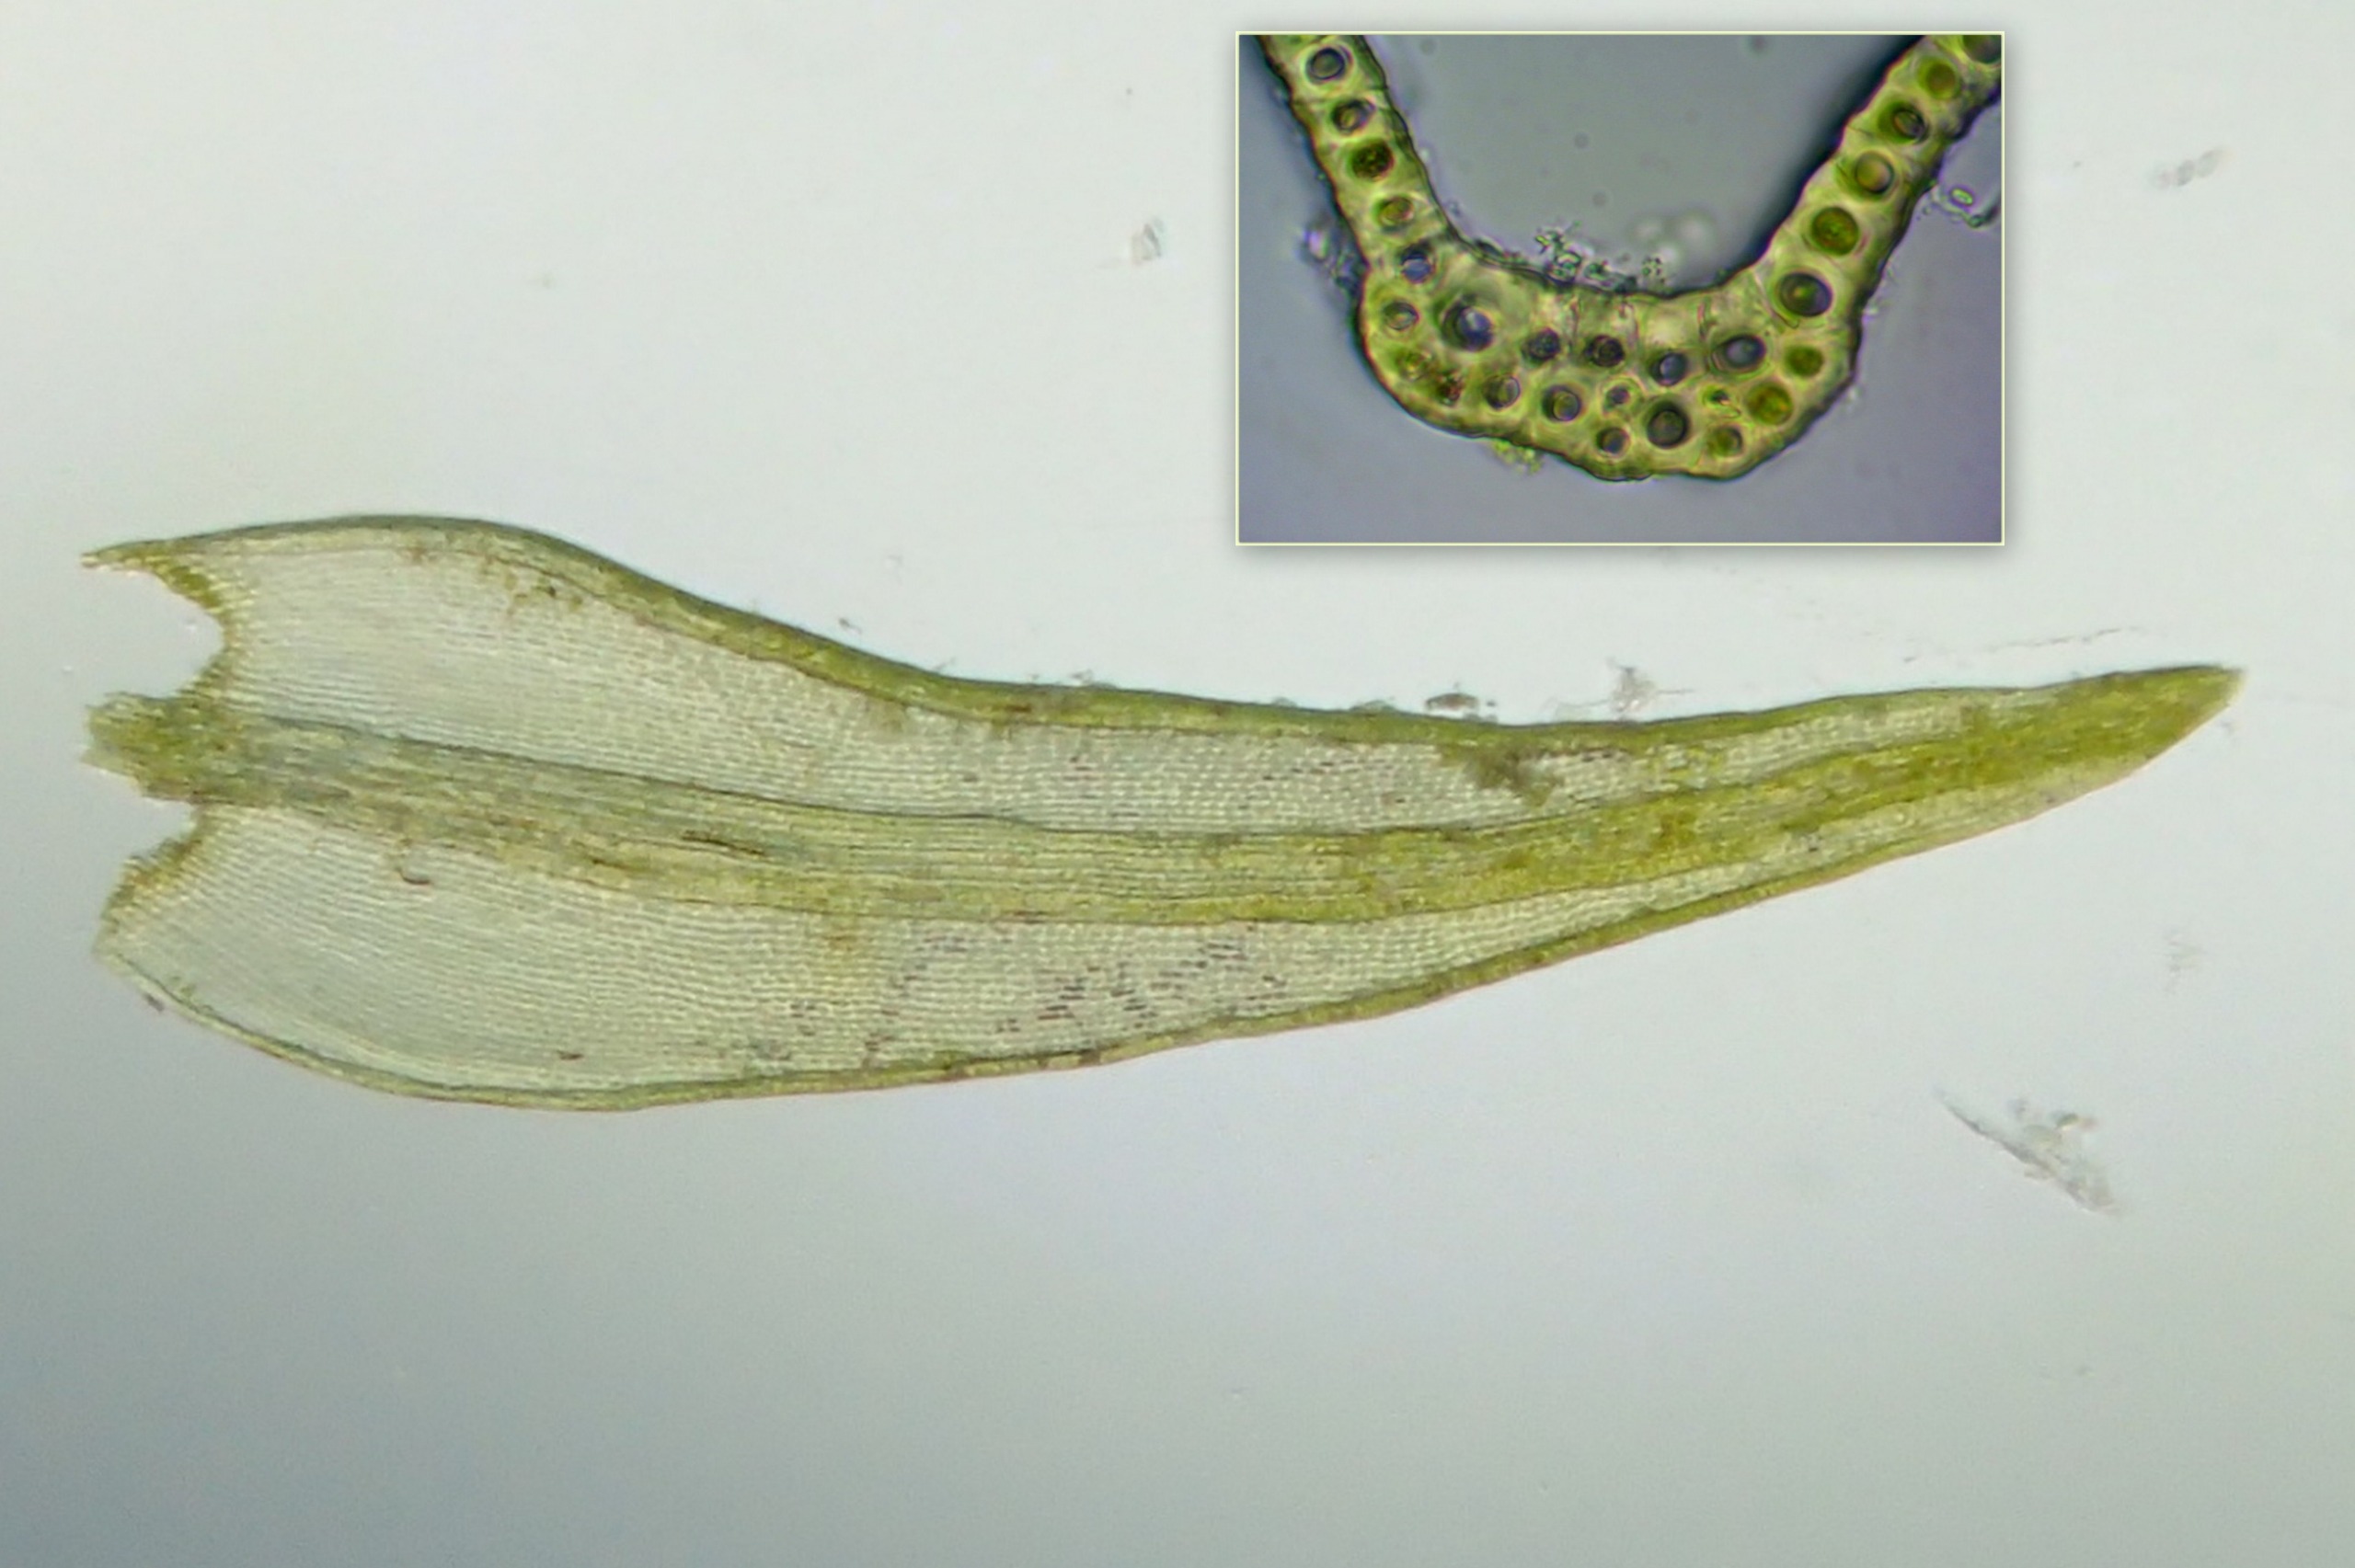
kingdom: Plantae
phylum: Bryophyta
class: Bryopsida
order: Grimmiales
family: Grimmiaceae
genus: Bucklandiella
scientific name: Bucklandiella obtusa
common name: Kyst-børstemos
